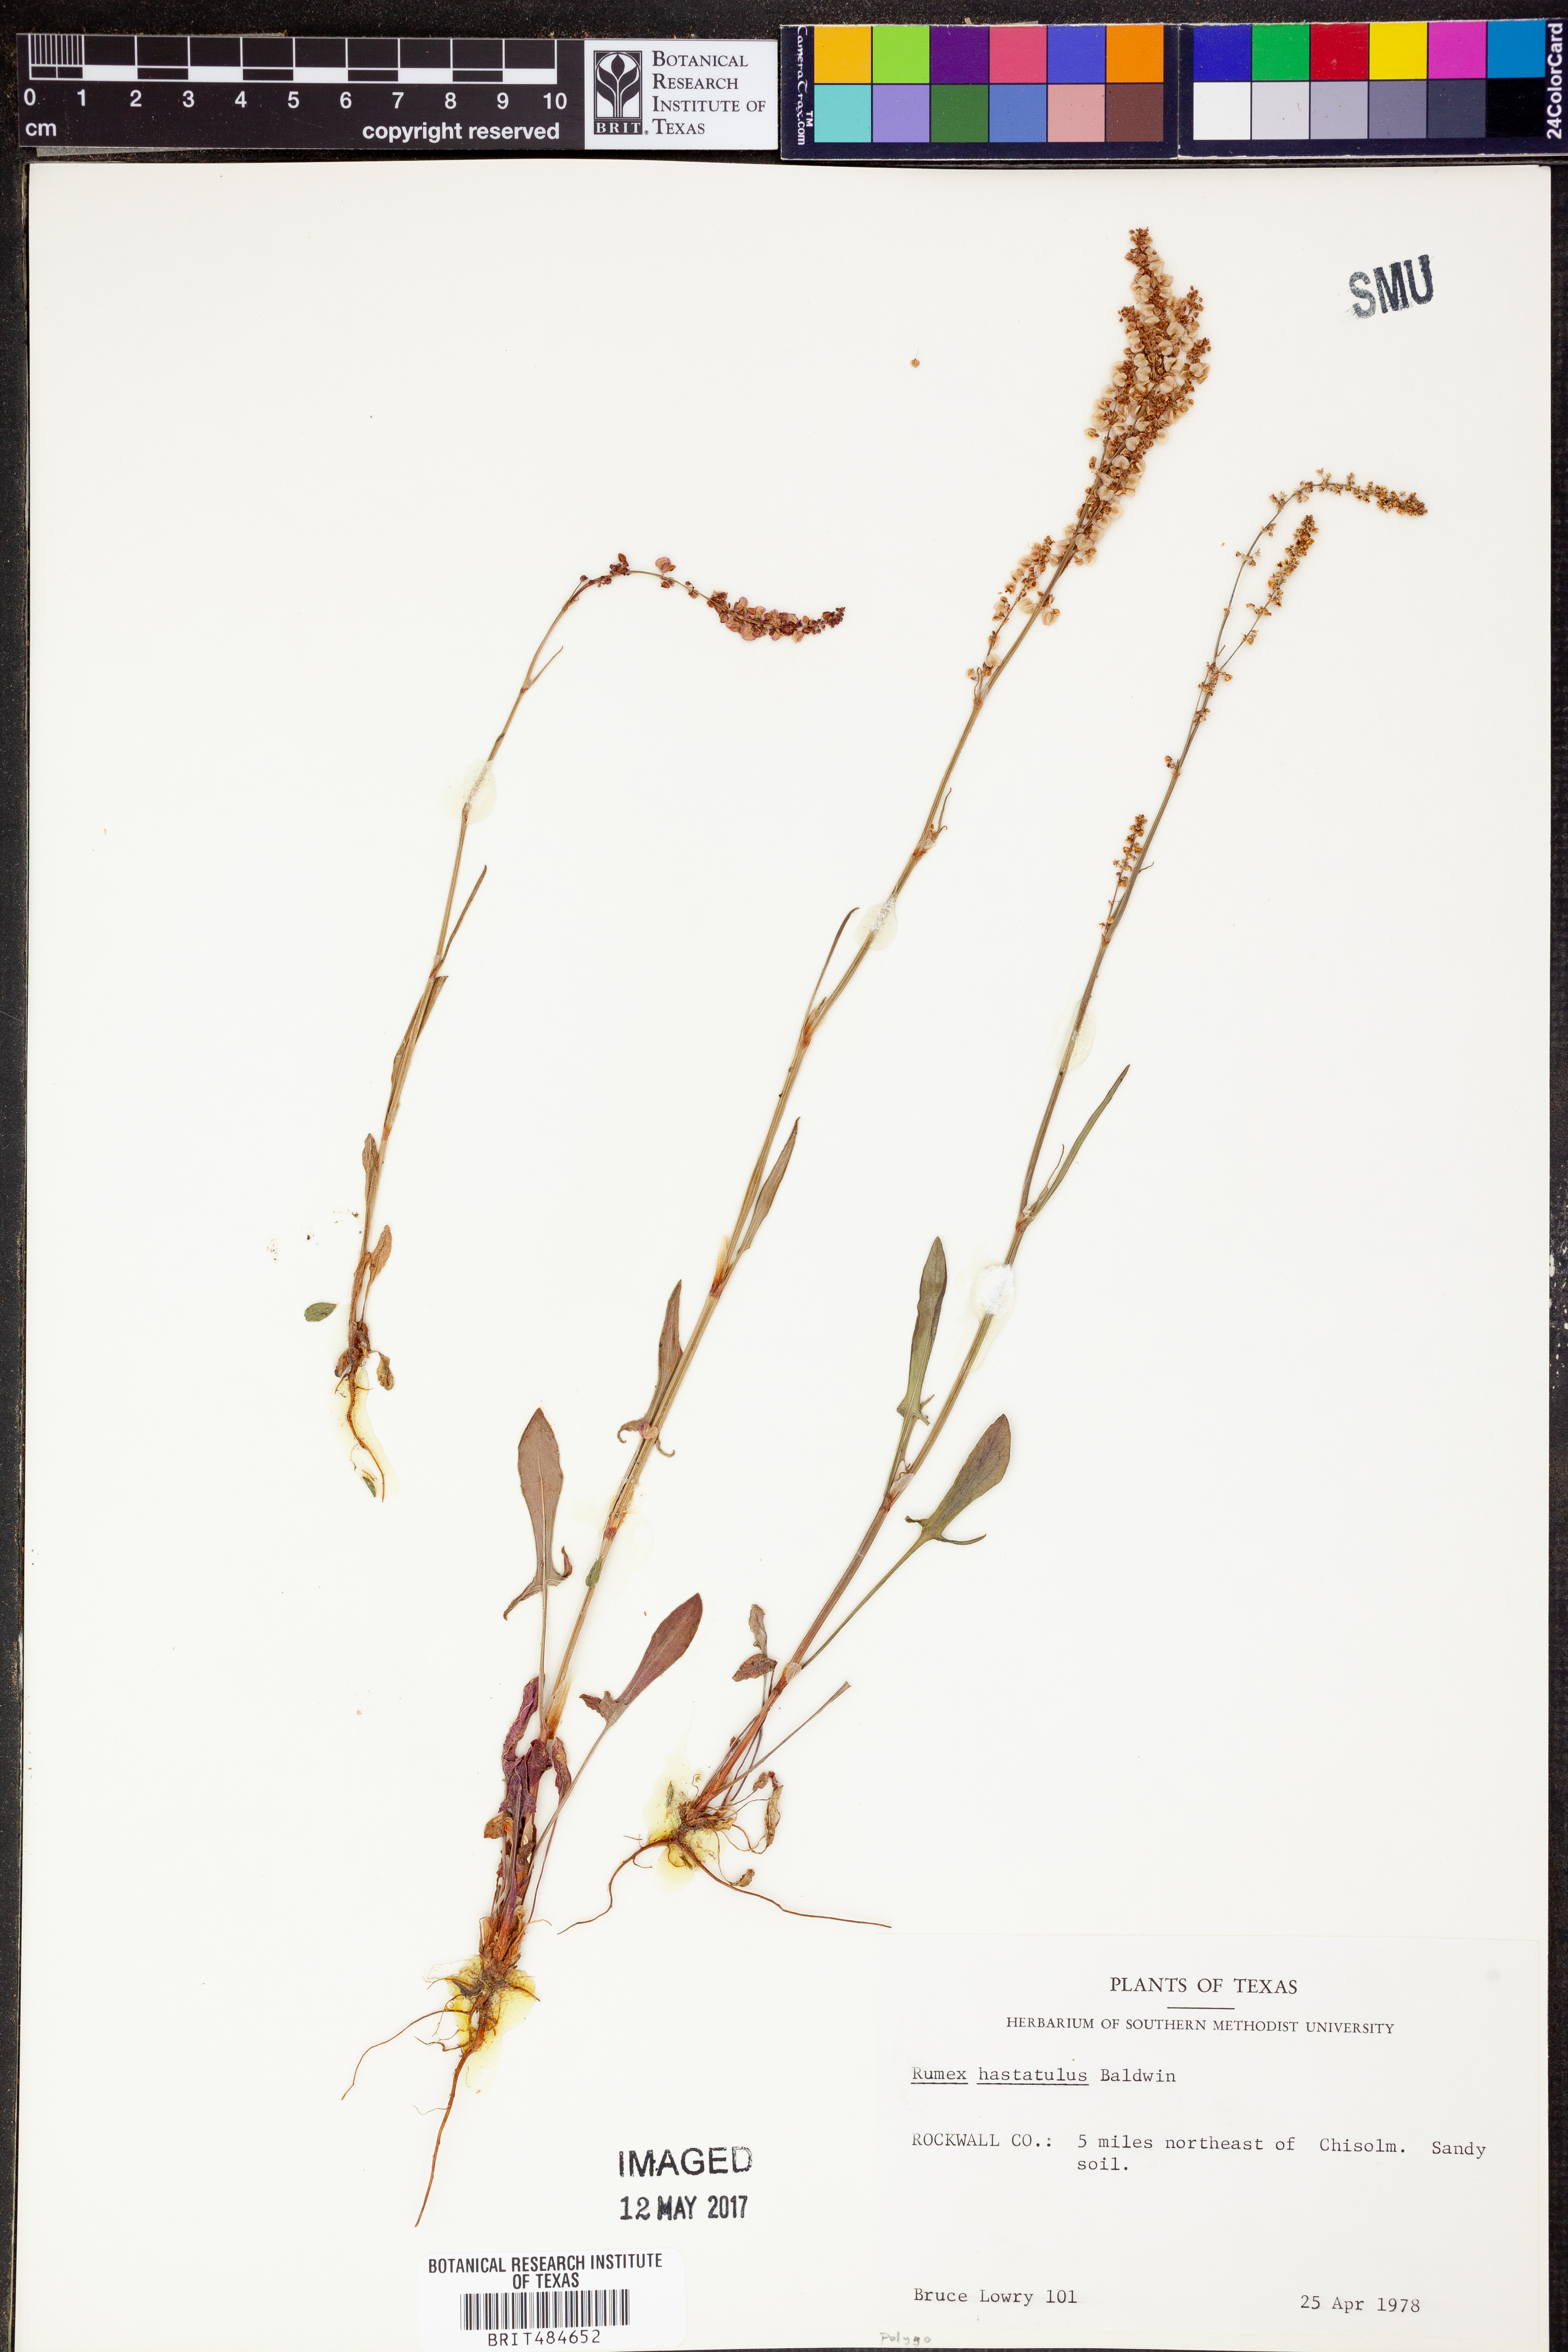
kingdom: Plantae
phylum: Tracheophyta
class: Magnoliopsida
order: Caryophyllales
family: Polygonaceae
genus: Rumex
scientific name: Rumex hastatulus
